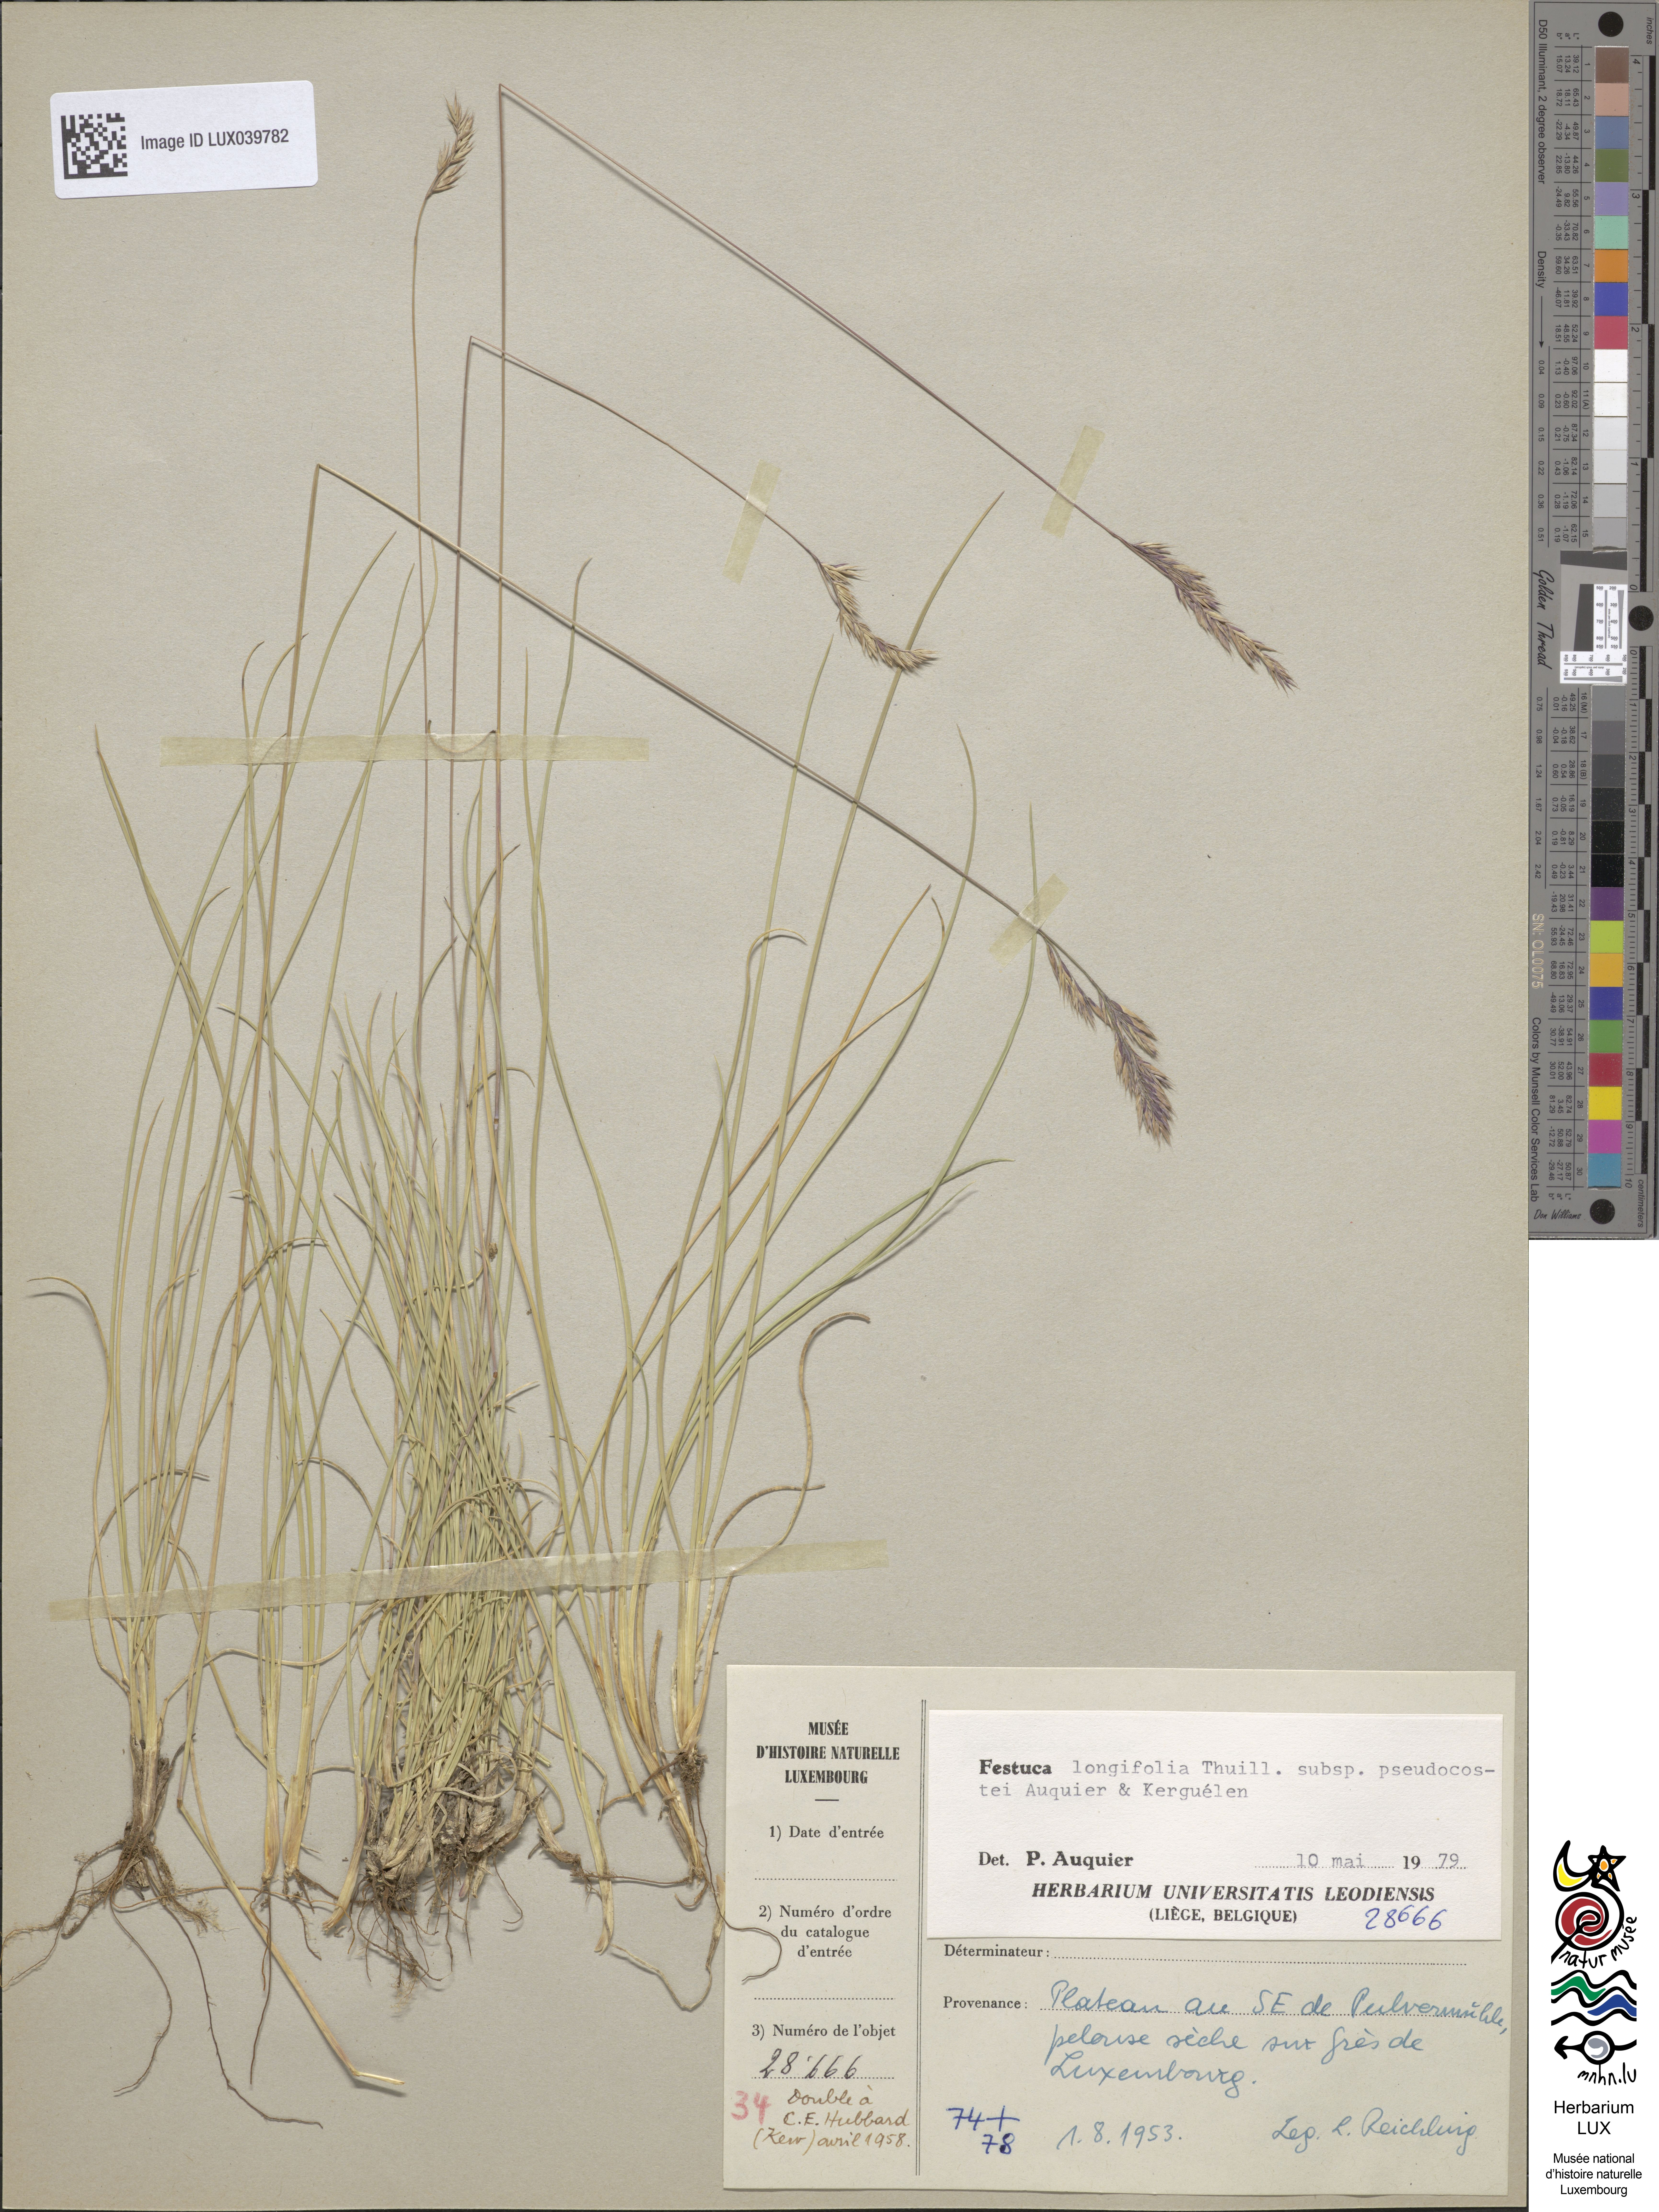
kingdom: Plantae
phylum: Tracheophyta
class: Liliopsida
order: Poales
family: Poaceae
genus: Festuca
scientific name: Festuca longifolia
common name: Blue fescue
